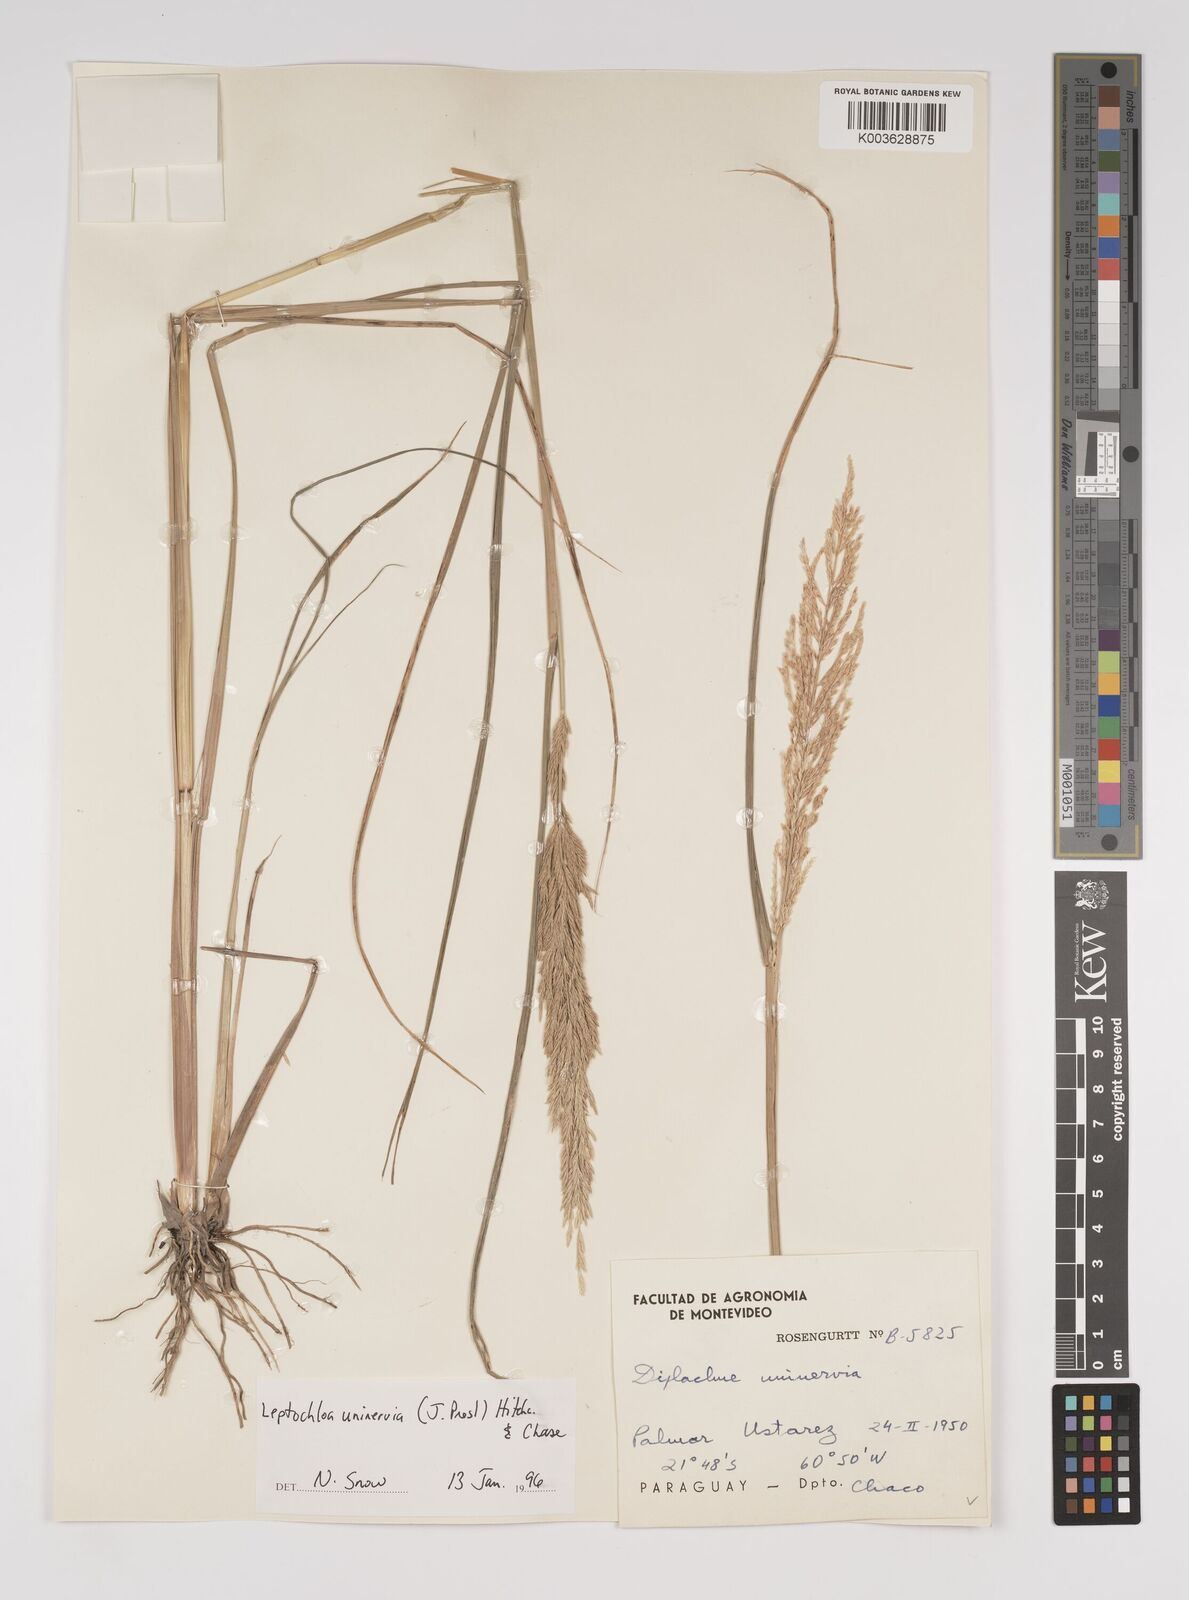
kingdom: Plantae
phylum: Tracheophyta
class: Liliopsida
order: Poales
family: Poaceae
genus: Diplachne
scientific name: Diplachne fusca
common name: Brown beetle grass
